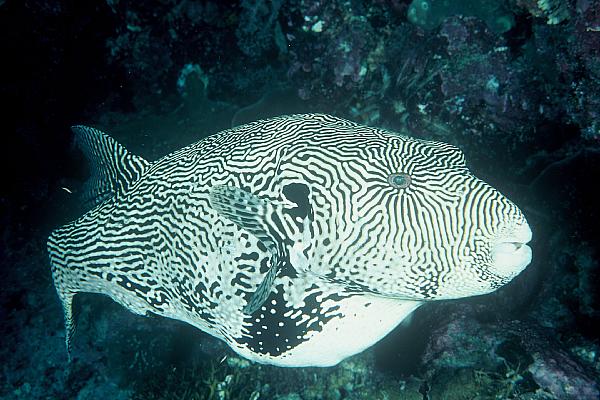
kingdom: Animalia
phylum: Chordata
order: Tetraodontiformes
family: Tetraodontidae
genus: Arothron
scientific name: Arothron mappa
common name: Map blaasop
